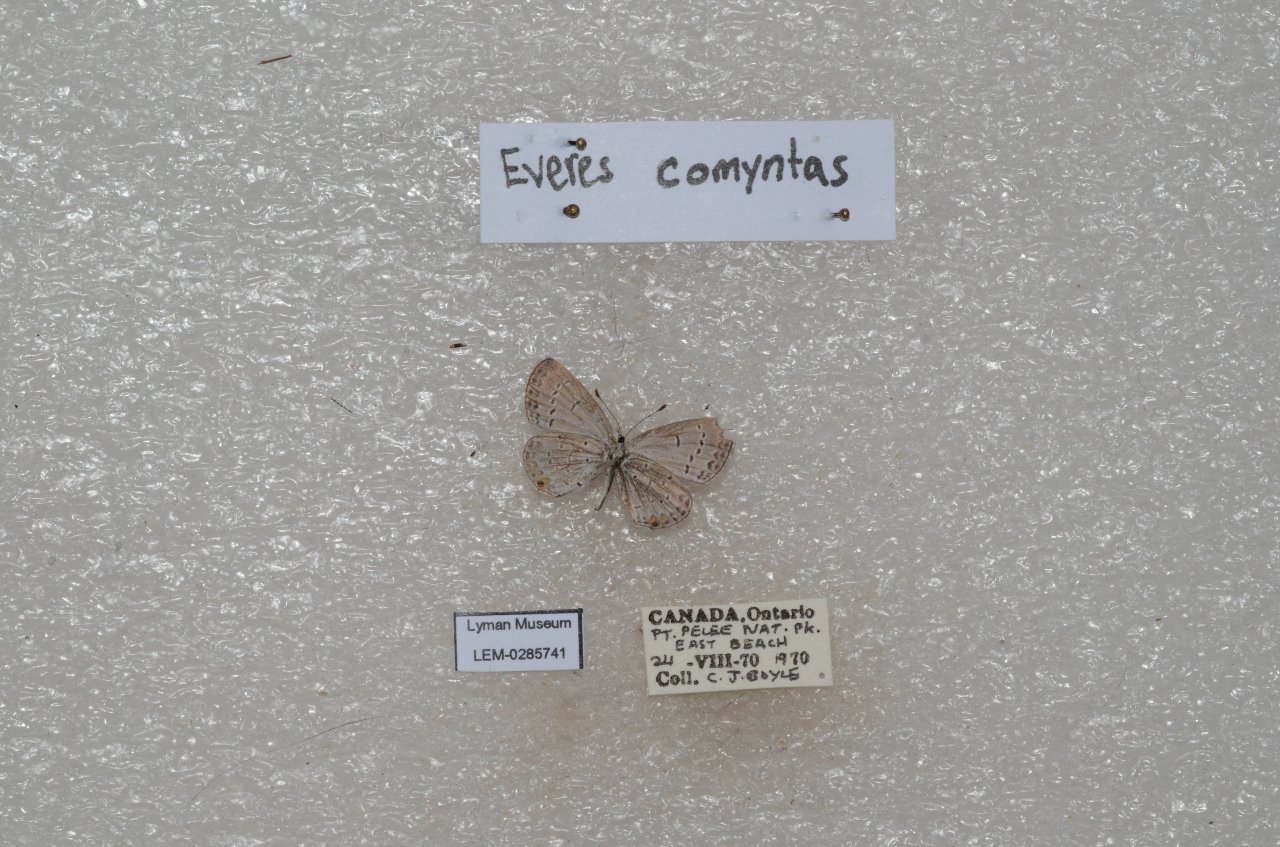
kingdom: Animalia
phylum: Arthropoda
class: Insecta
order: Lepidoptera
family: Lycaenidae
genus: Elkalyce
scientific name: Elkalyce comyntas
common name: Eastern Tailed-Blue
